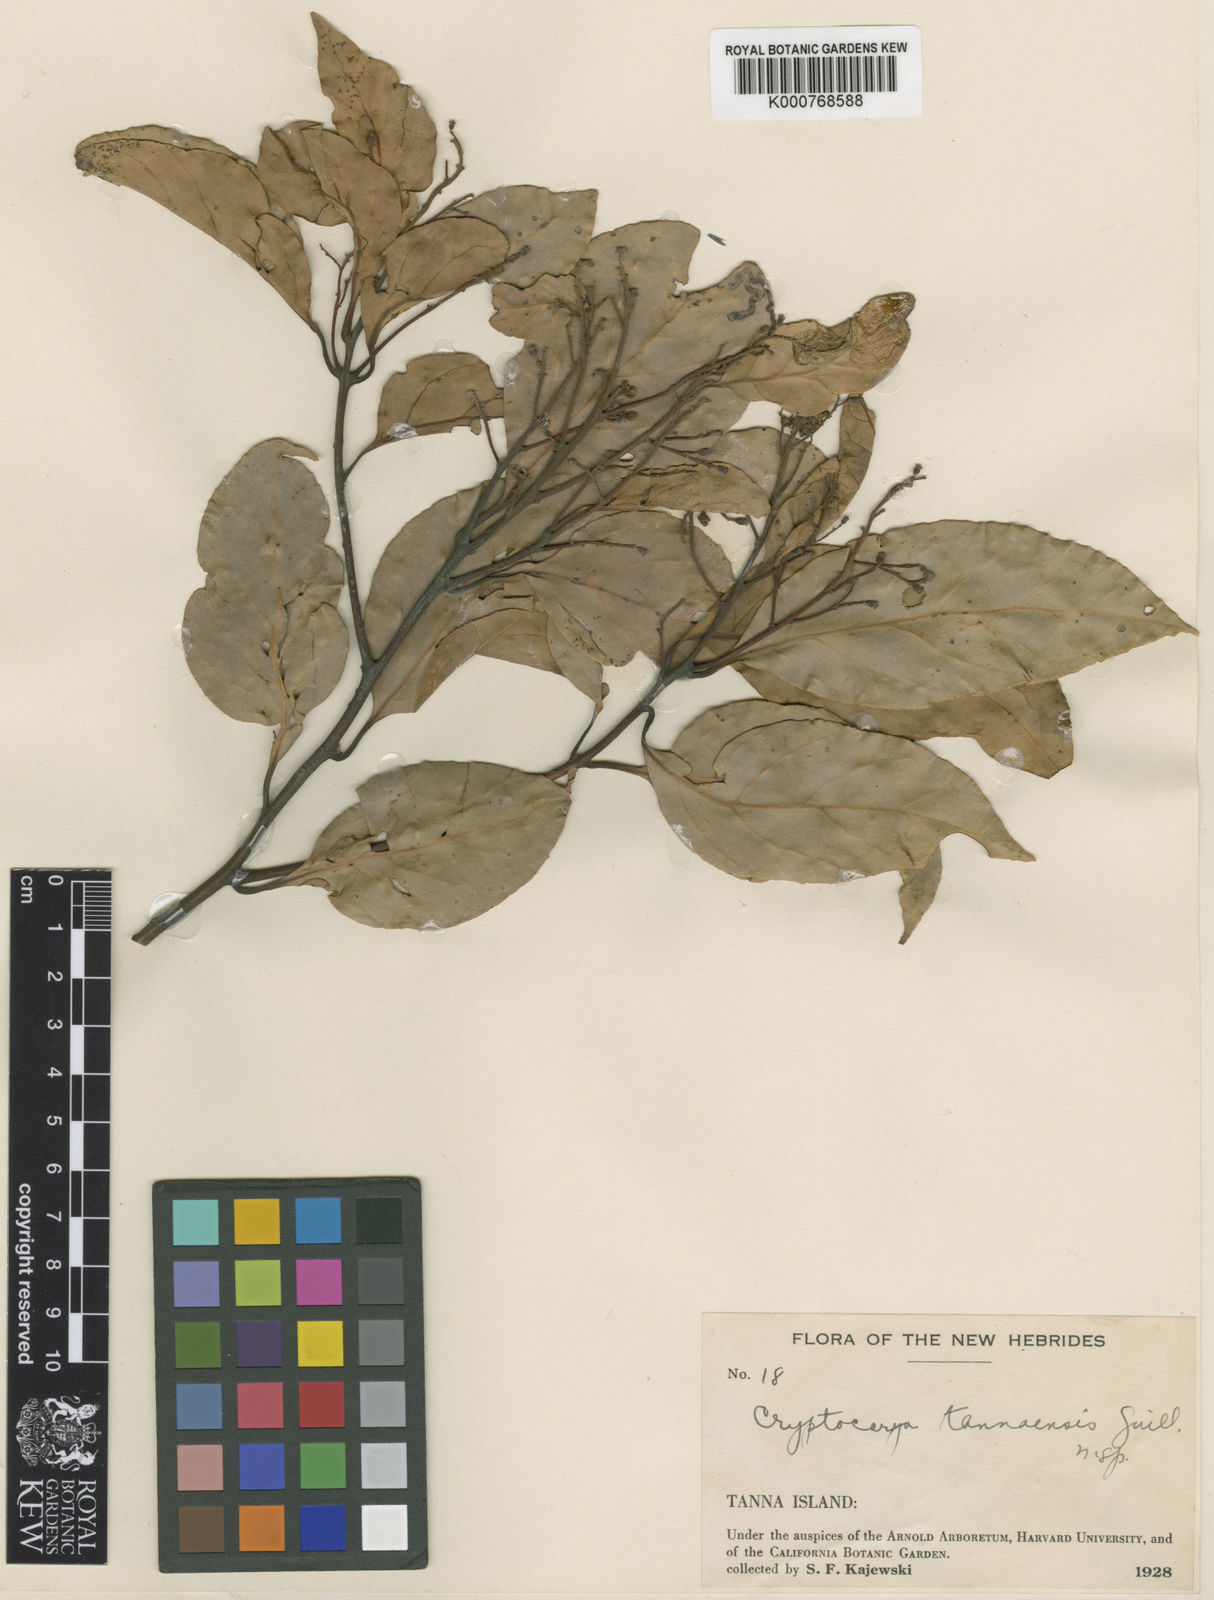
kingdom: Plantae
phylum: Tracheophyta
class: Magnoliopsida
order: Laurales
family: Lauraceae
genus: Cryptocarya
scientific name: Cryptocarya turbinata
